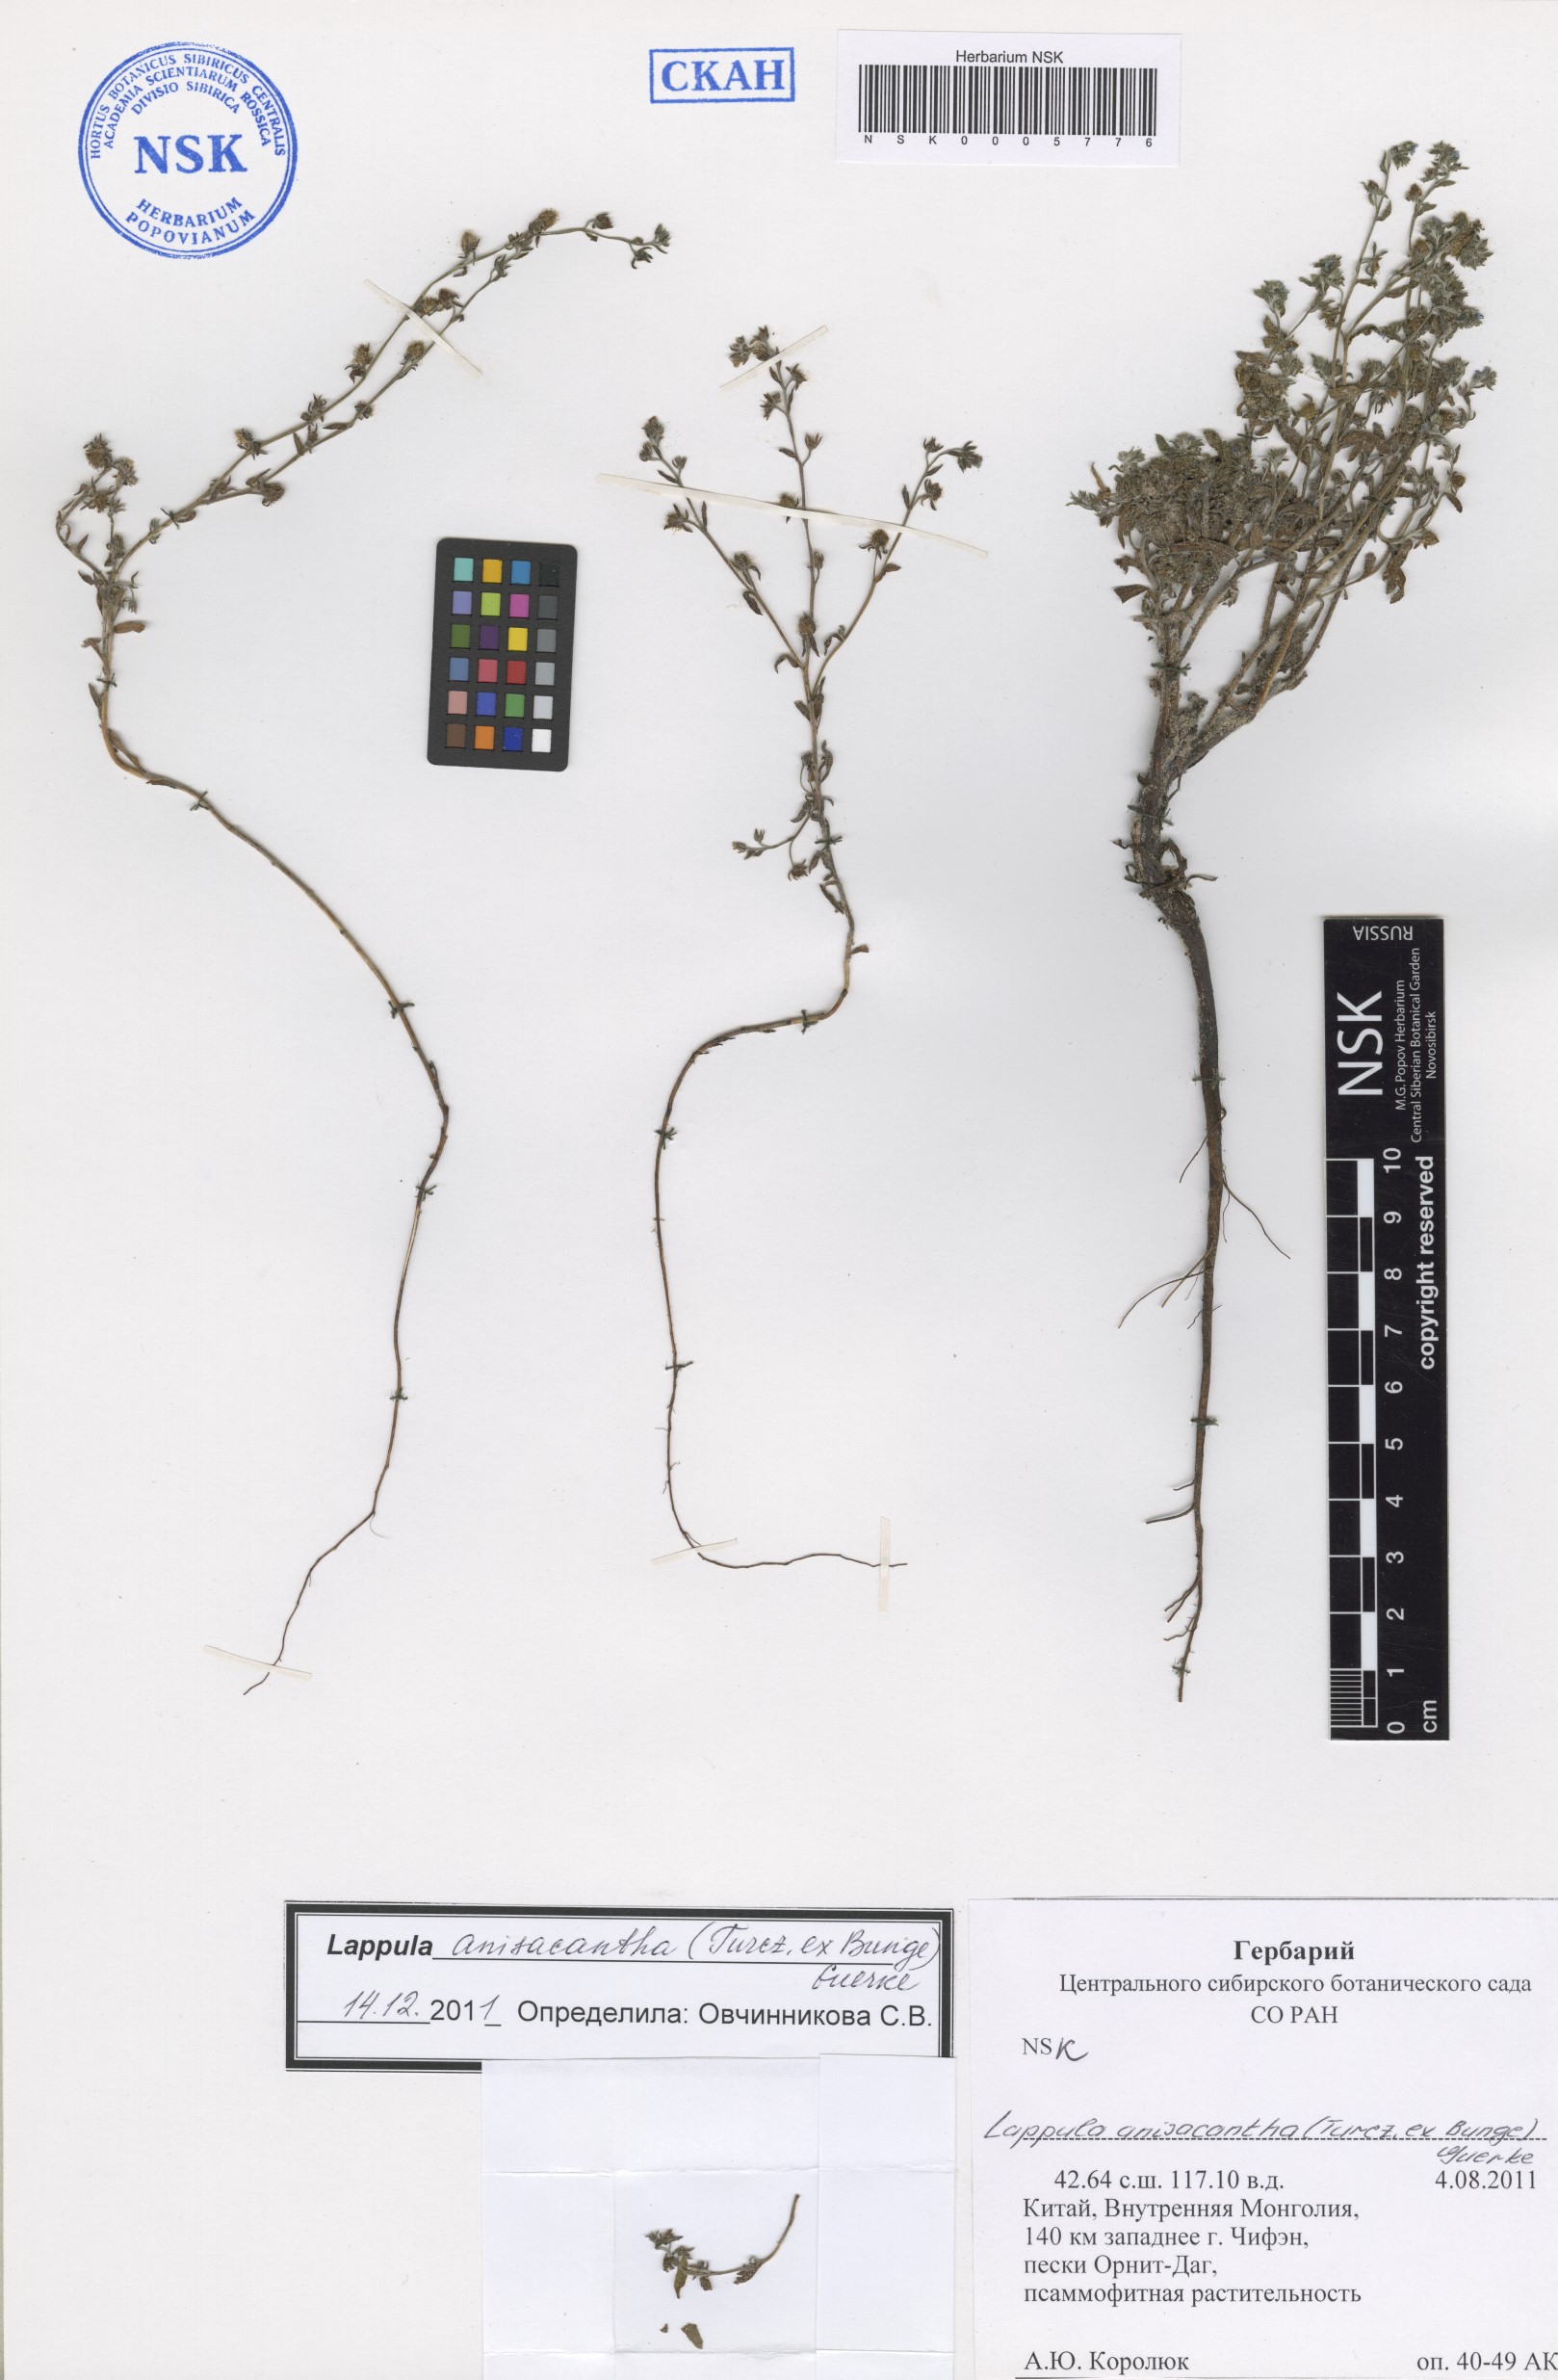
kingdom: Plantae
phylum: Tracheophyta
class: Magnoliopsida
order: Boraginales
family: Boraginaceae
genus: Lappula
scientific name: Lappula intermedia
